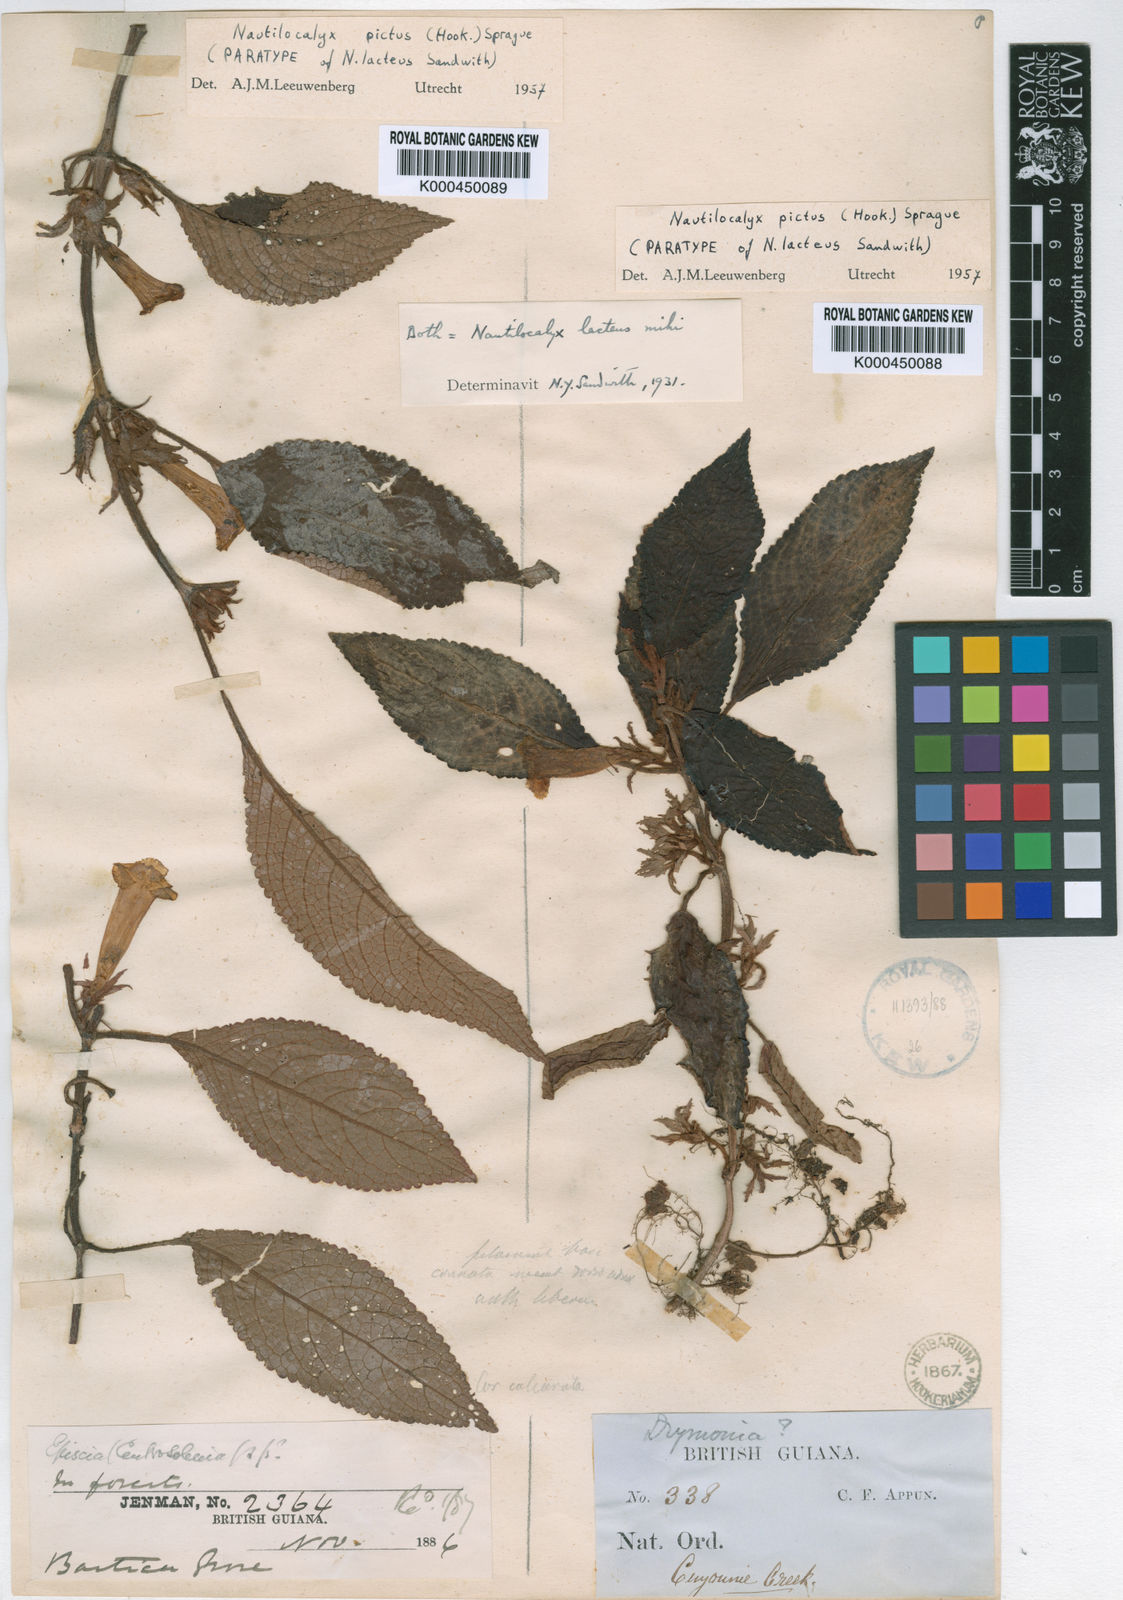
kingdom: Plantae
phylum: Tracheophyta
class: Magnoliopsida
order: Lamiales
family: Gesneriaceae
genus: Centrosolenia
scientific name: Centrosolenia picta
